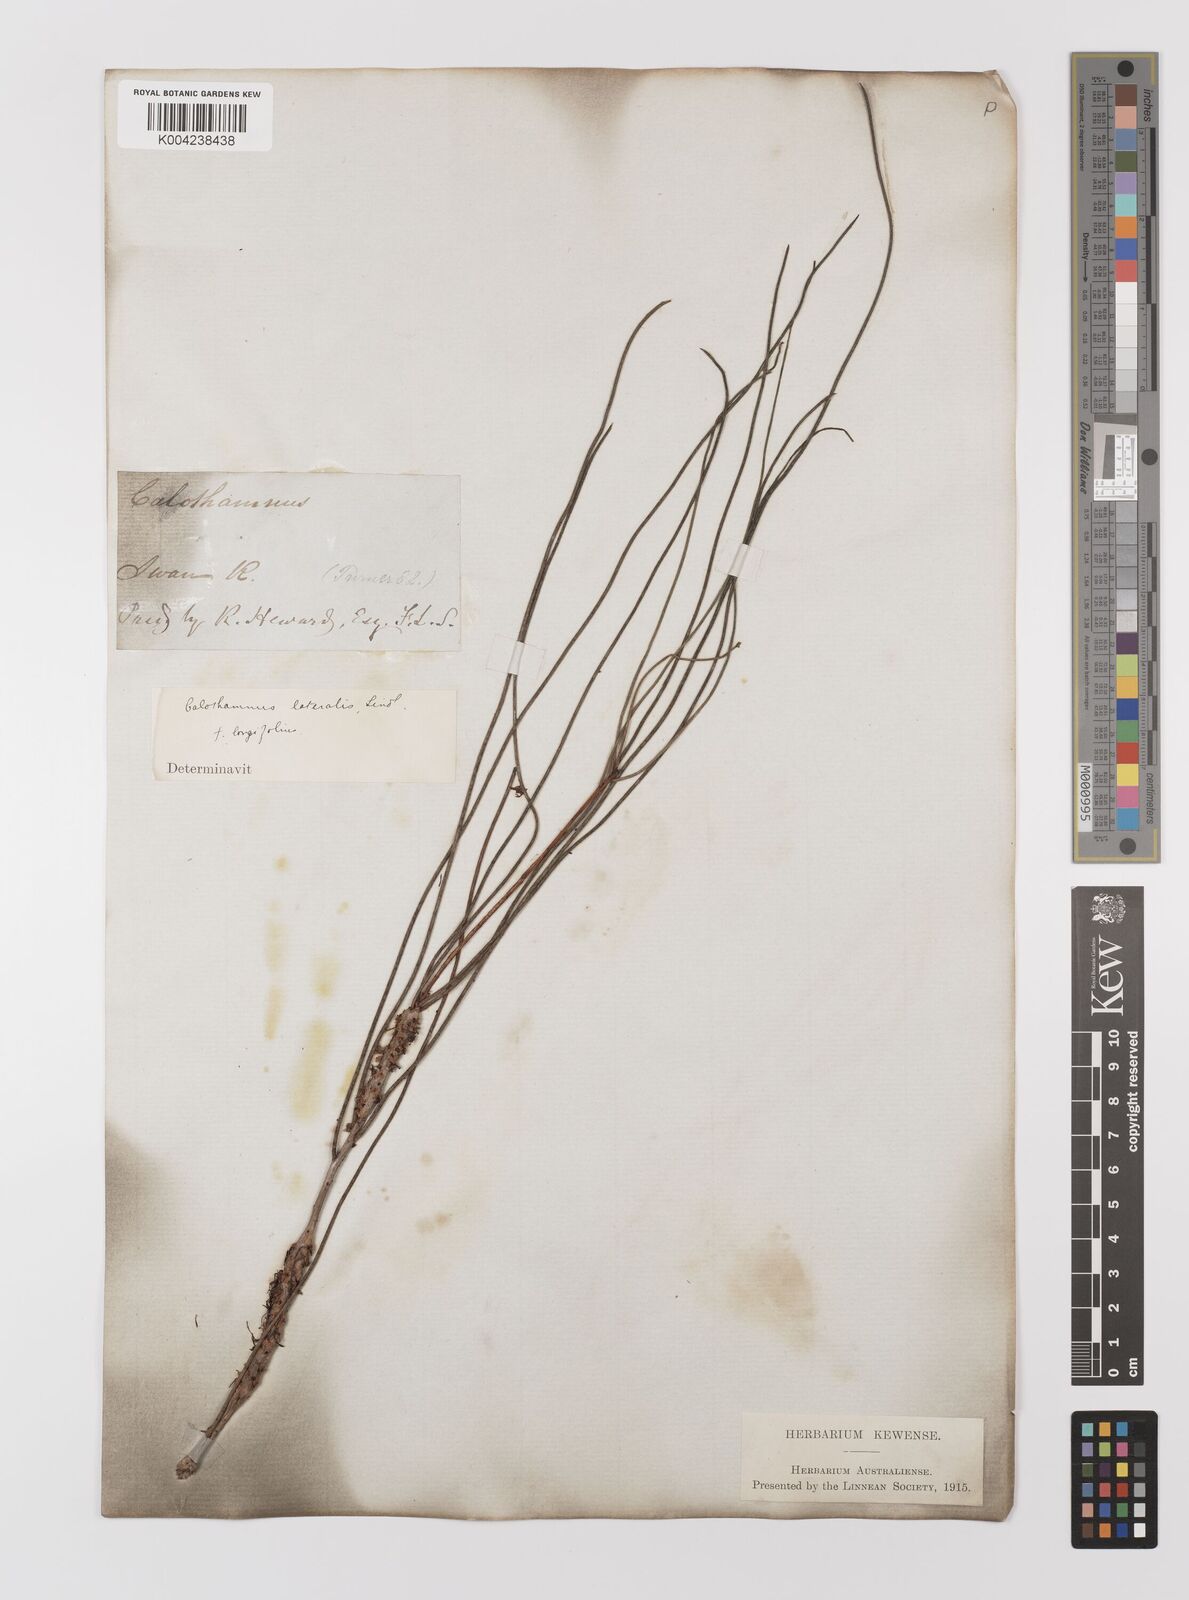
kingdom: Plantae
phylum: Tracheophyta
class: Magnoliopsida
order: Myrtales
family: Myrtaceae
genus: Melaleuca
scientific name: Melaleuca lateralis
